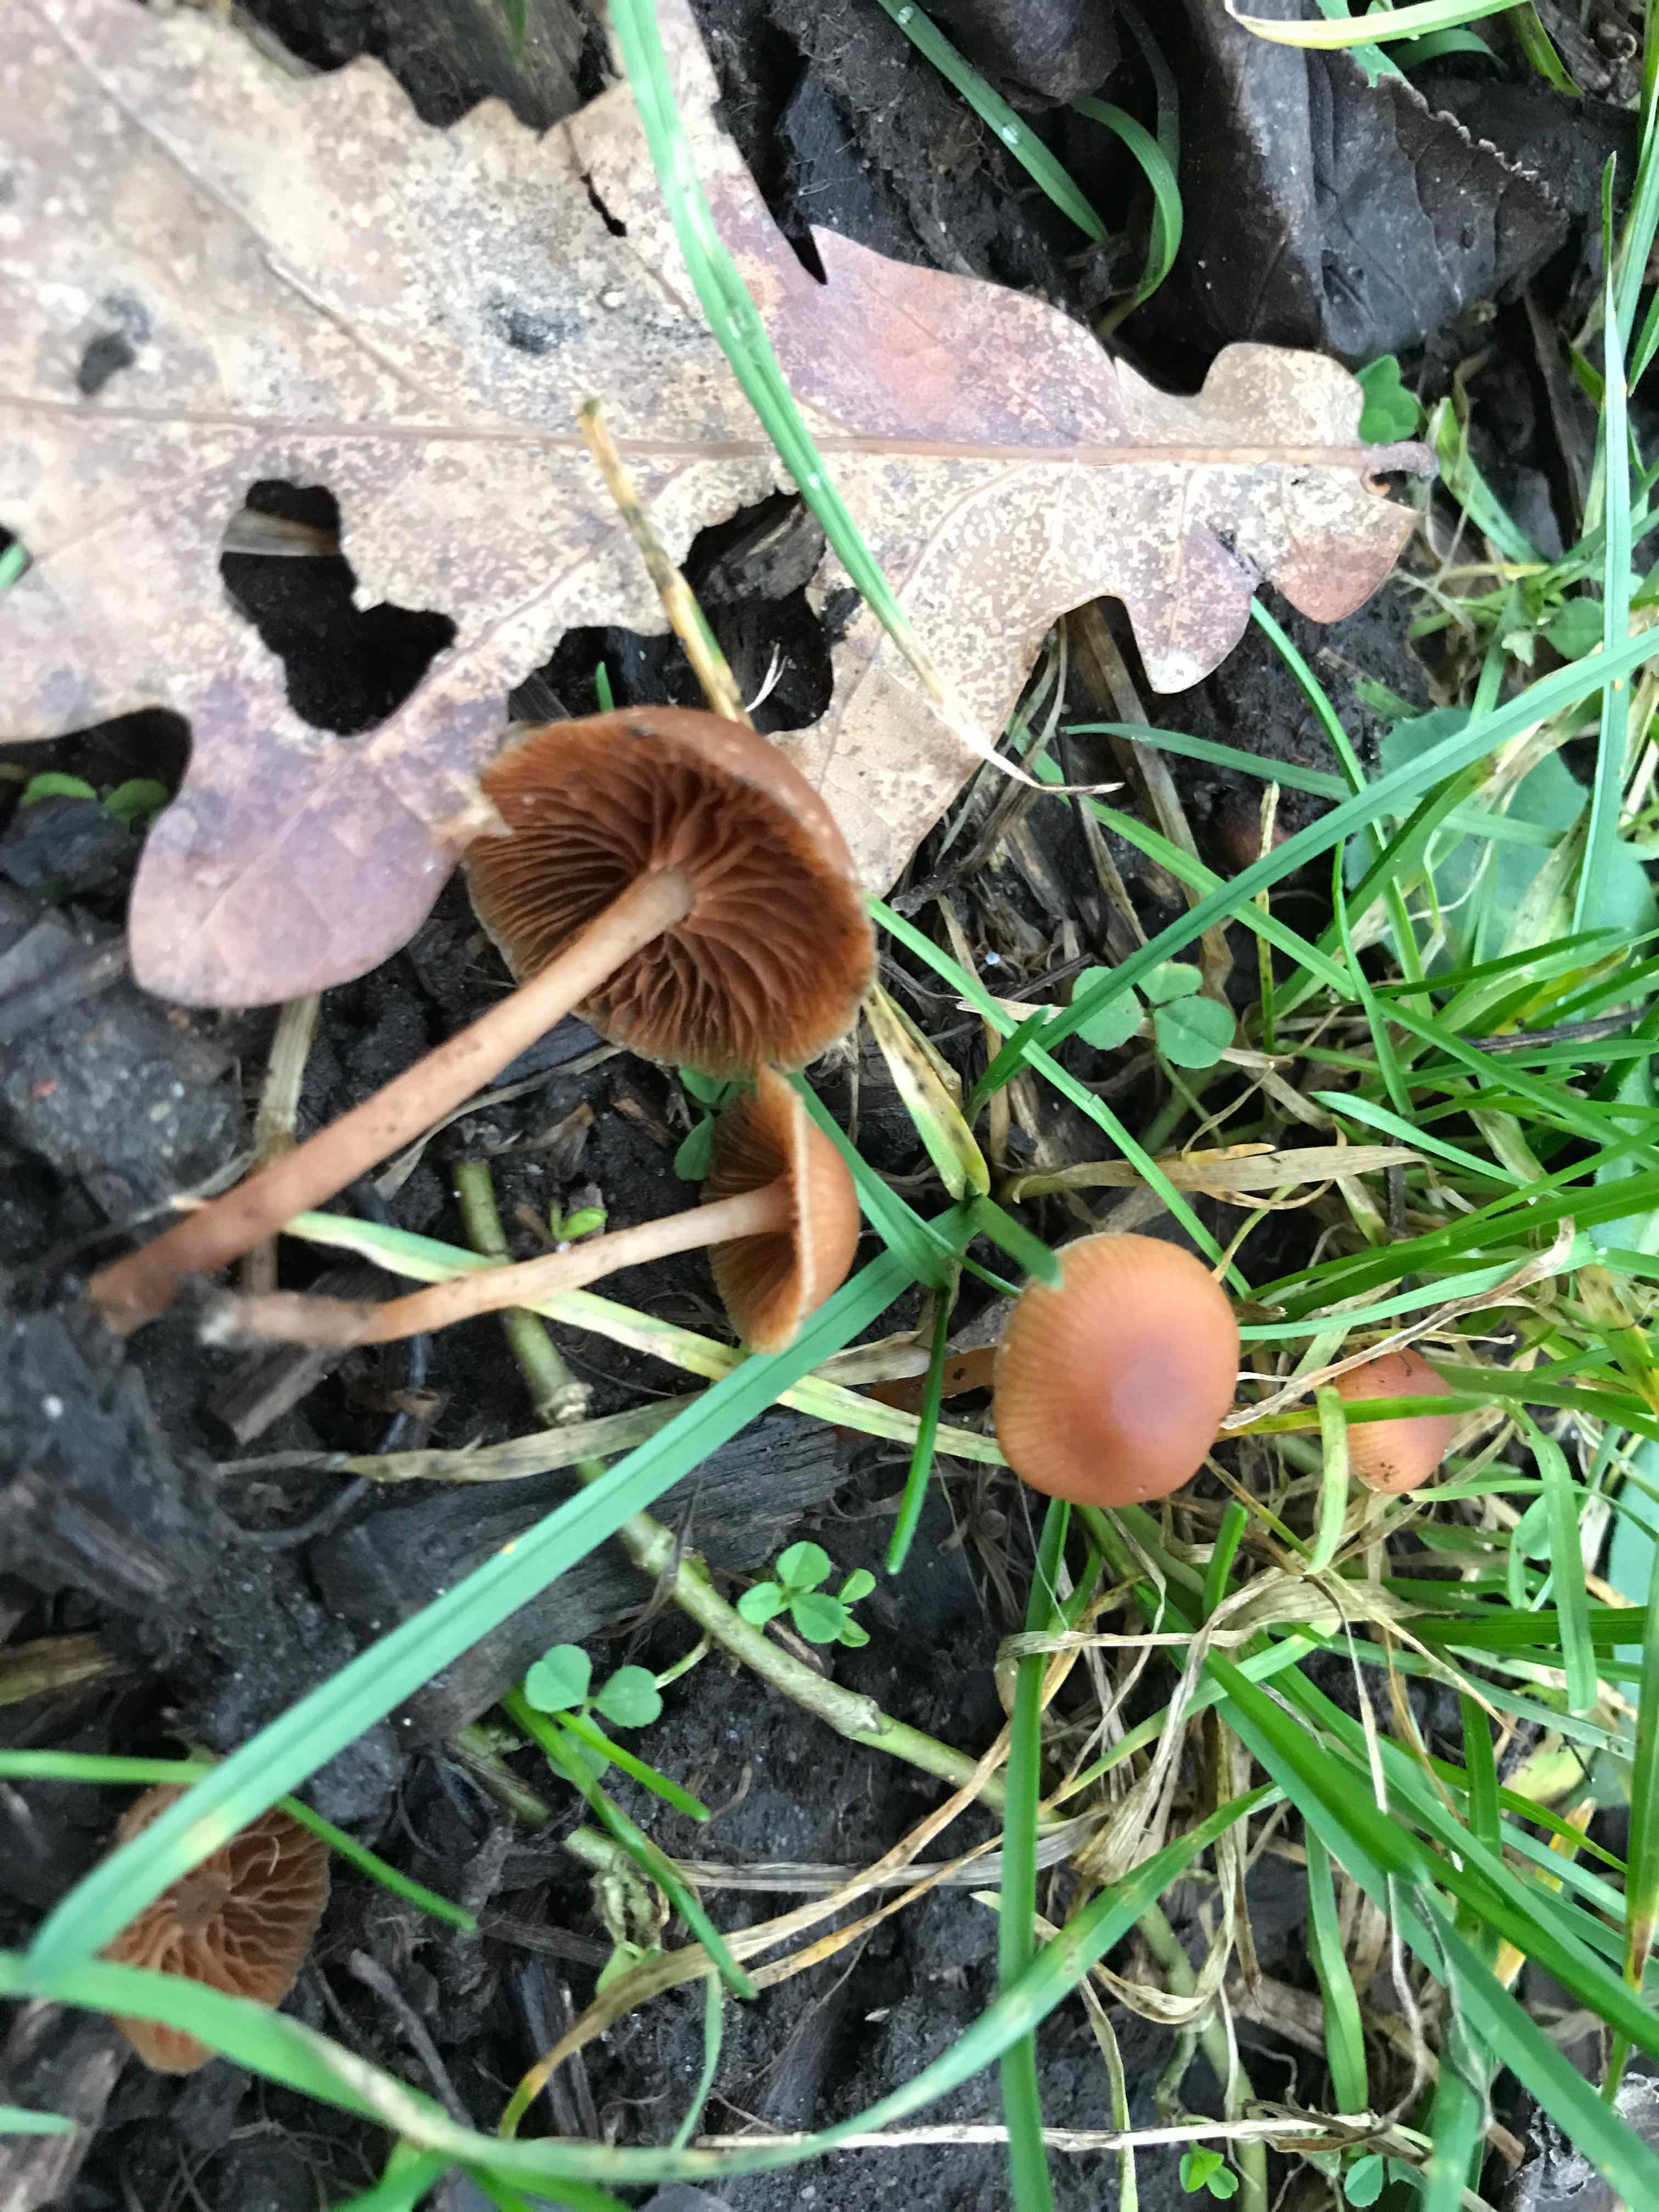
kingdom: Fungi
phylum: Basidiomycota
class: Agaricomycetes
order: Agaricales
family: Tubariaceae
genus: Tubaria
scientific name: Tubaria furfuracea
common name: kliddet fnughat
